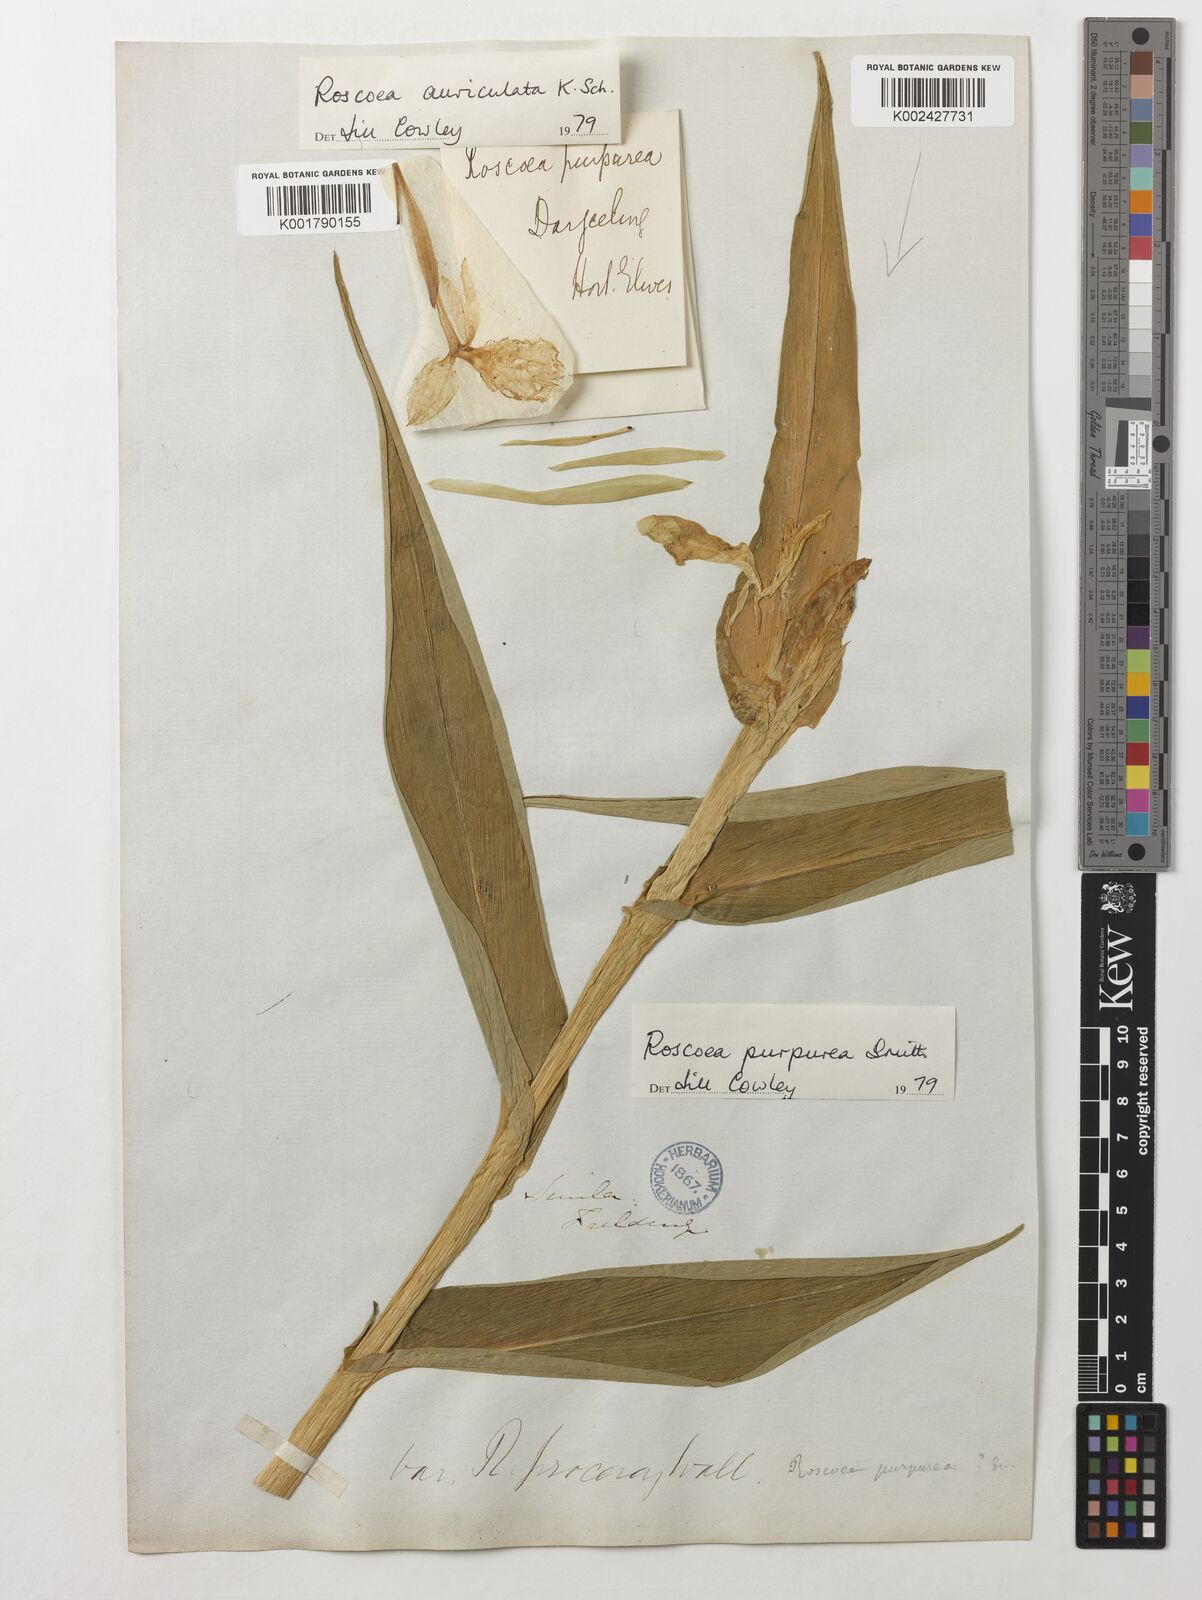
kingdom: Plantae
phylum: Tracheophyta
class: Liliopsida
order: Zingiberales
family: Zingiberaceae
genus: Roscoea
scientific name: Roscoea auriculata
